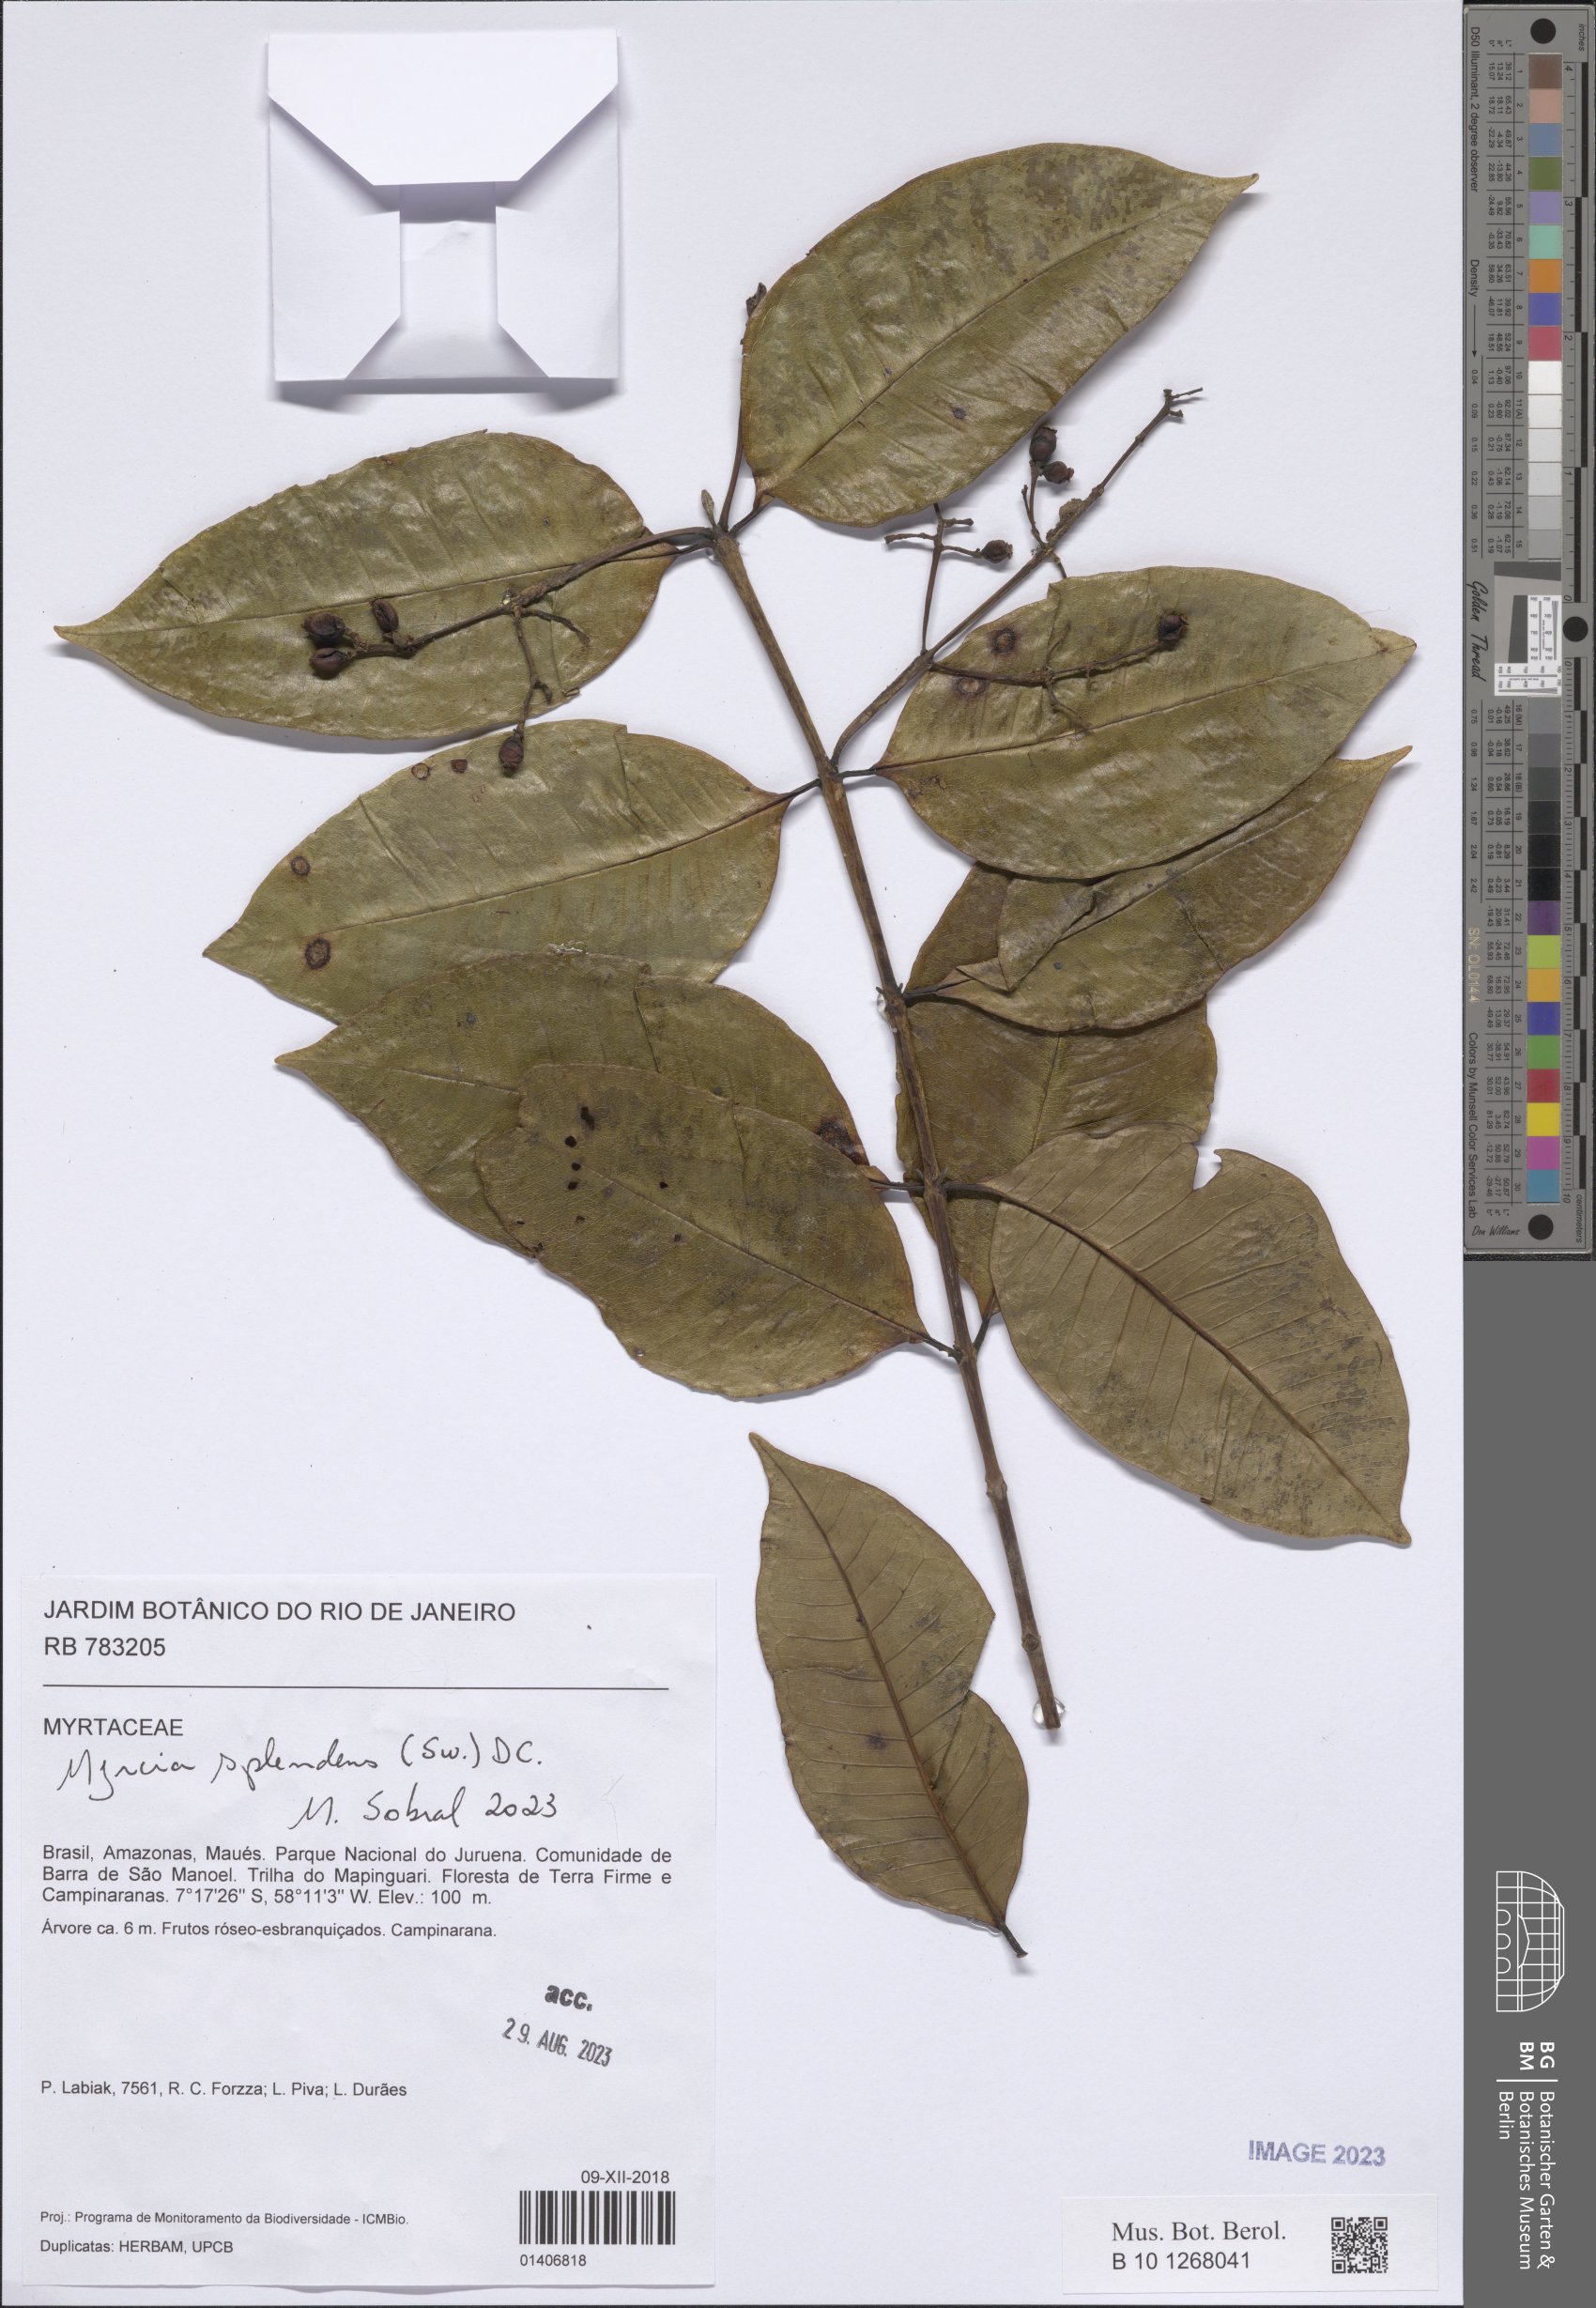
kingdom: Plantae
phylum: Tracheophyta
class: Magnoliopsida
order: Myrtales
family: Myrtaceae
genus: Myrcia
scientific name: Myrcia splendens
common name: Surinam cherry
